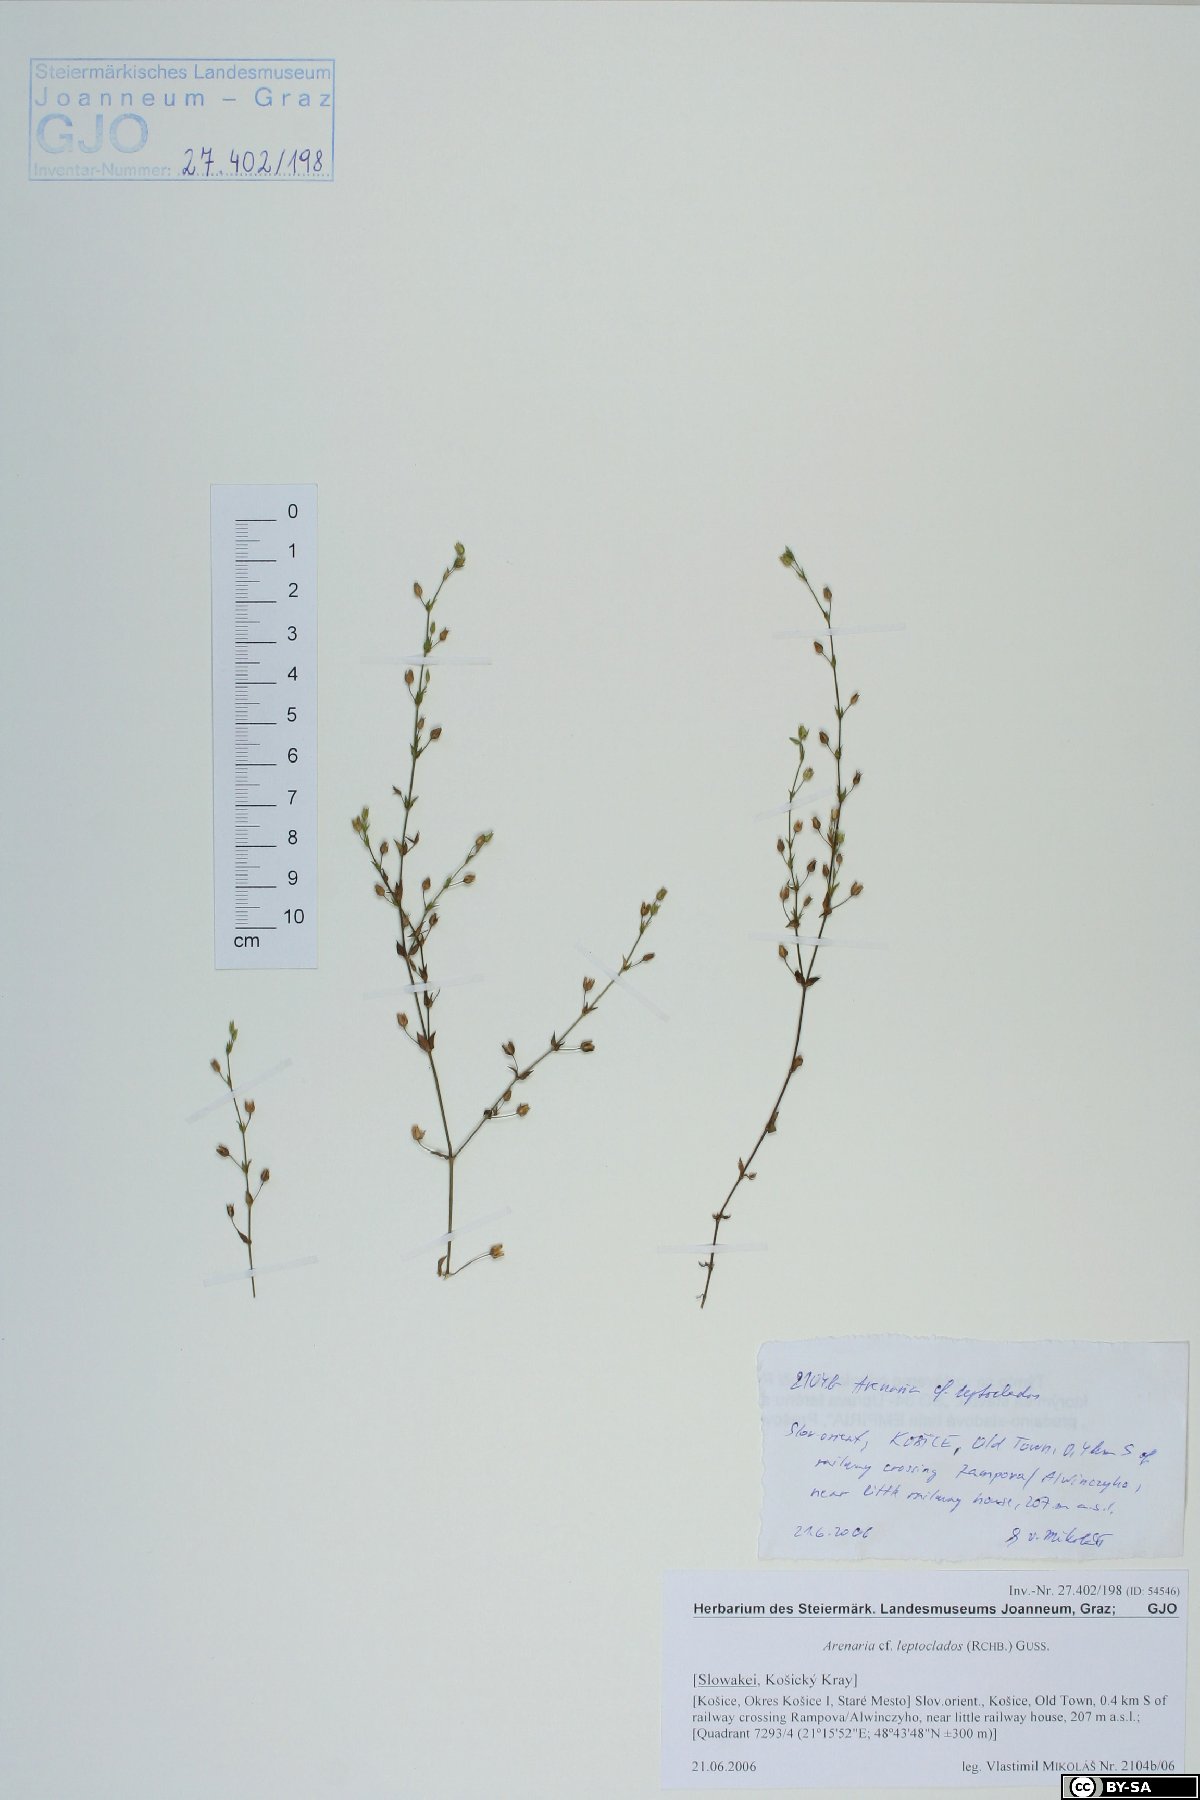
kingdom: Plantae
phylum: Tracheophyta
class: Magnoliopsida
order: Caryophyllales
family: Caryophyllaceae
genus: Arenaria
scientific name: Arenaria leptoclados
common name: Thyme-leaved sandwort
